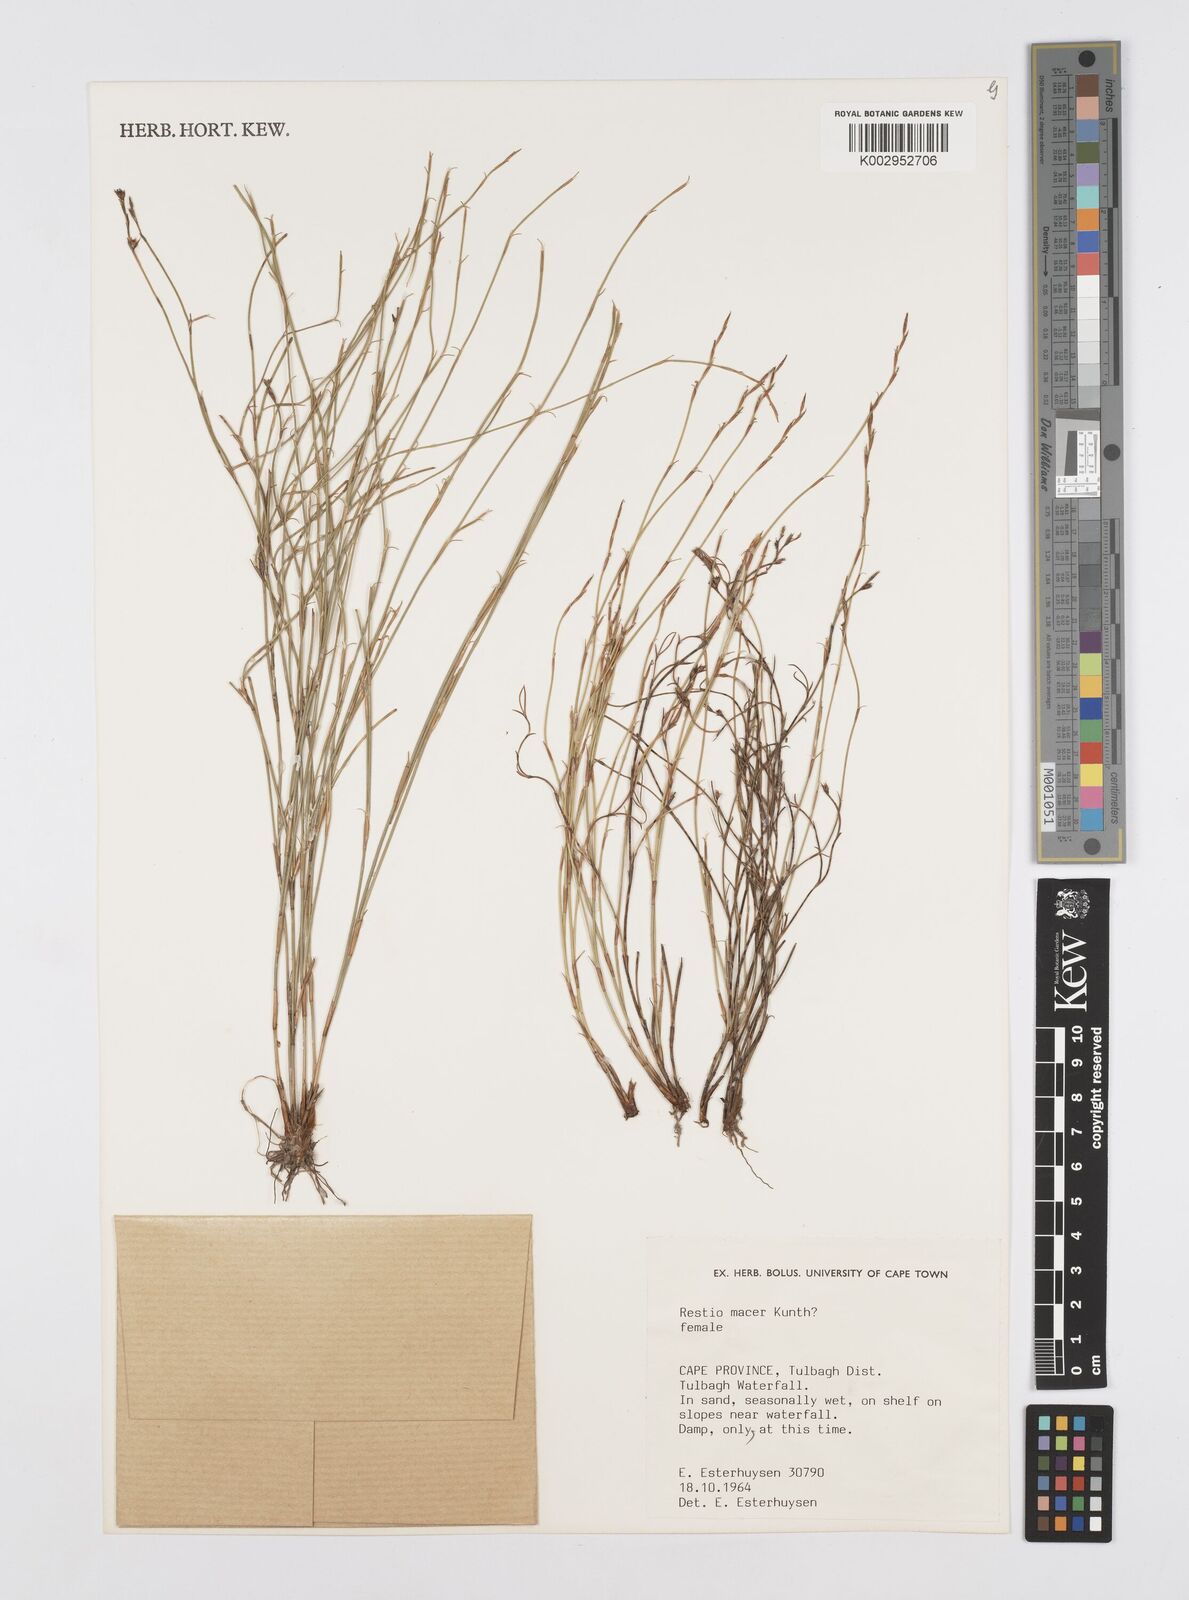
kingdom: Plantae
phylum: Tracheophyta
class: Liliopsida
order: Poales
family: Restionaceae
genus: Restio
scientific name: Restio macer
